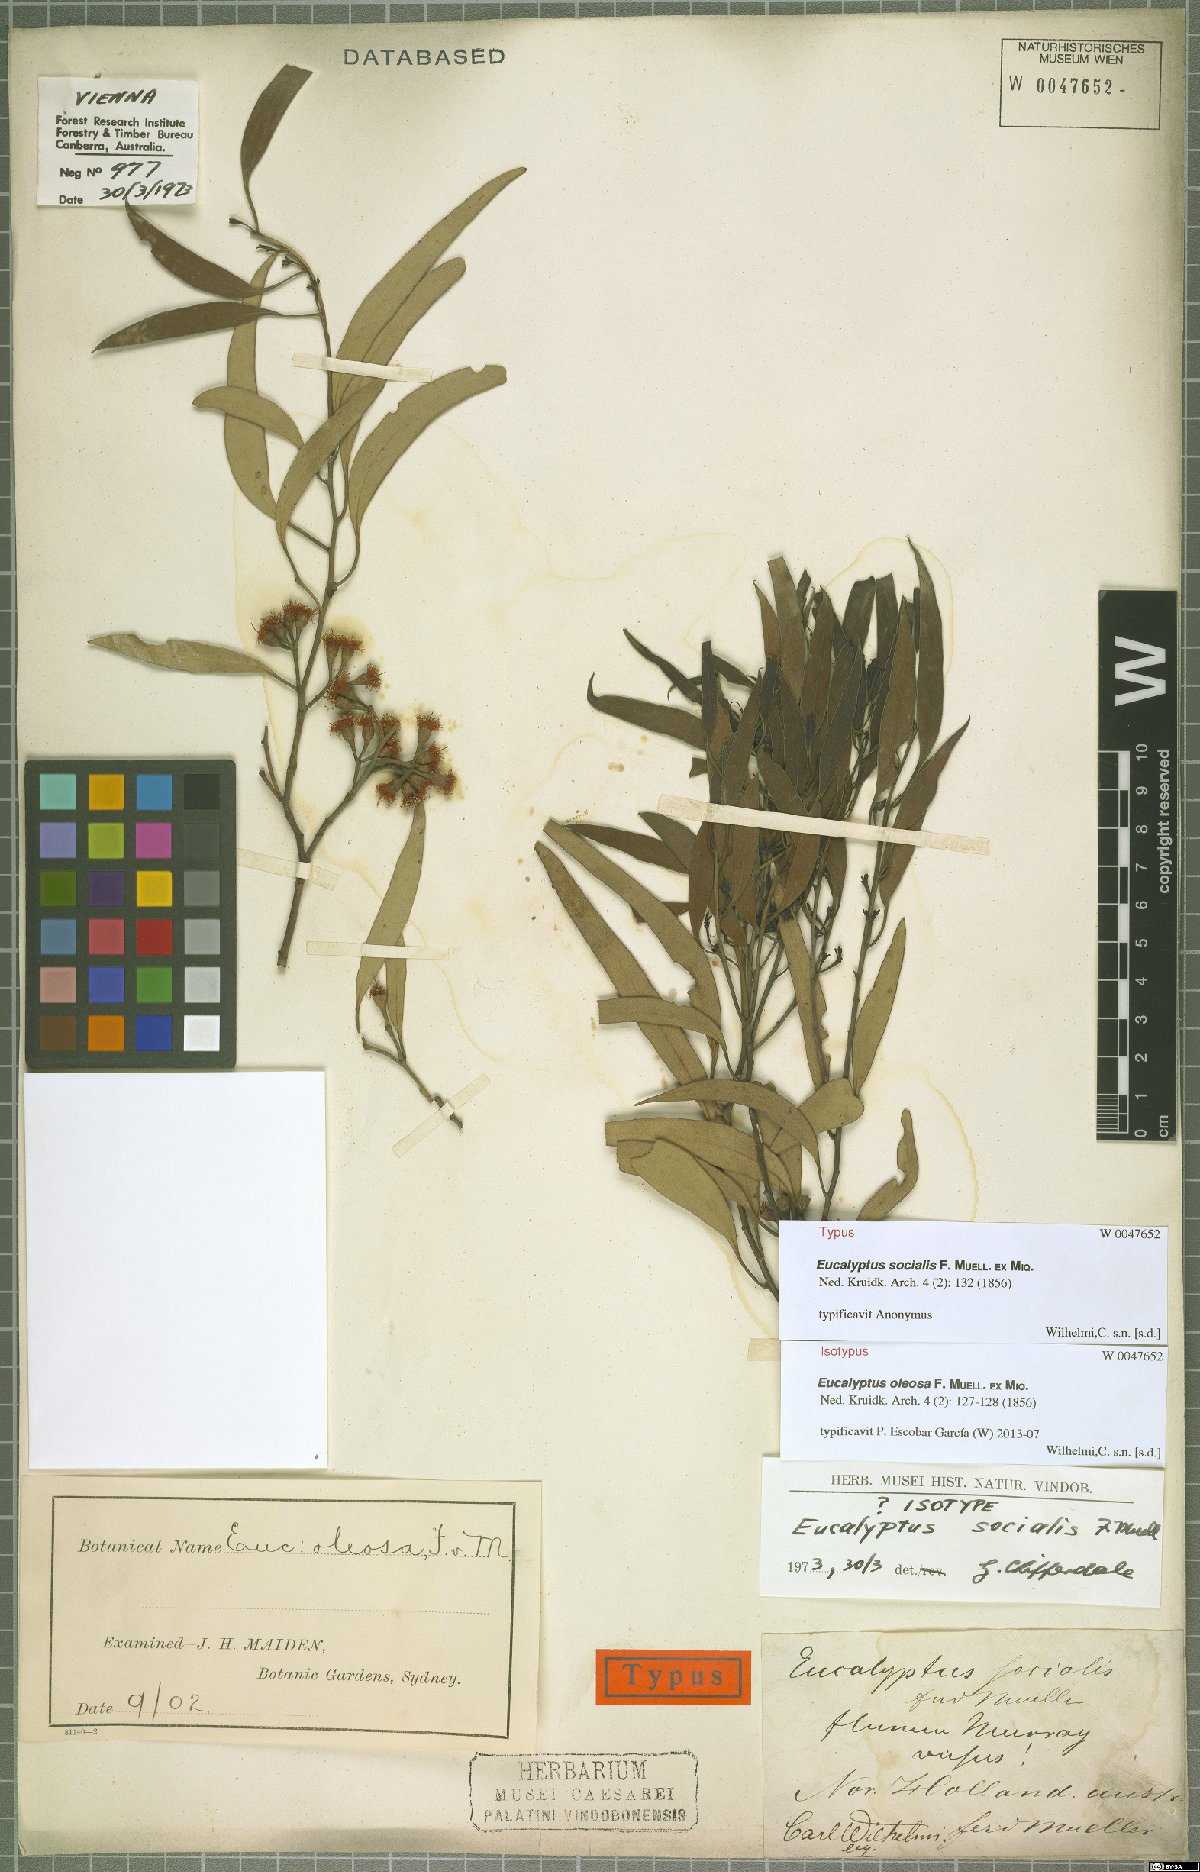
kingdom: Plantae
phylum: Tracheophyta
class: Magnoliopsida
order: Myrtales
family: Myrtaceae
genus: Eucalyptus
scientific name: Eucalyptus oleosa
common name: Oil mallee
